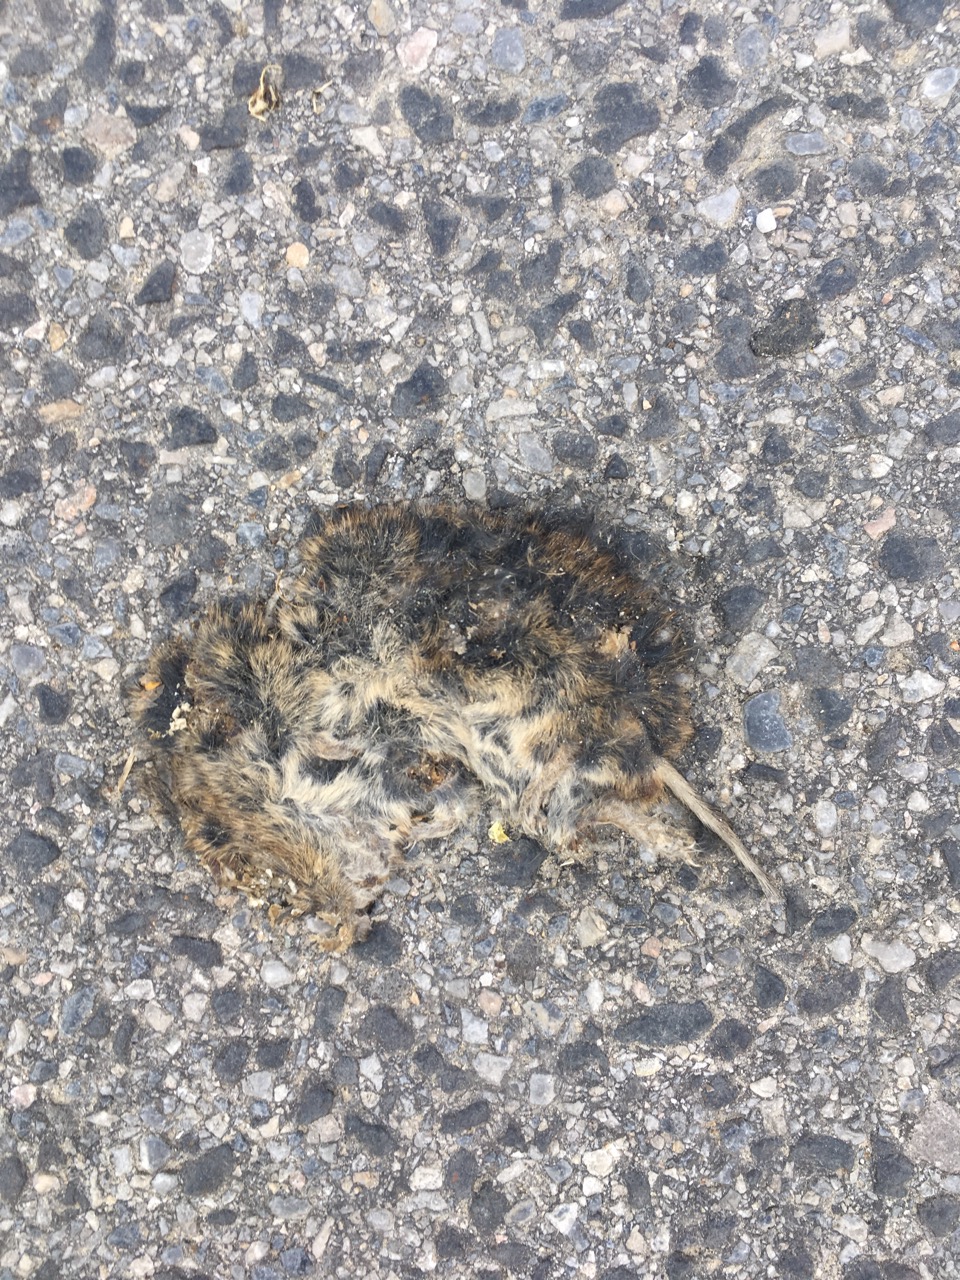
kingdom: Animalia
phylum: Chordata
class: Mammalia
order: Rodentia
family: Cricetidae
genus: Microtus
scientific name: Microtus
